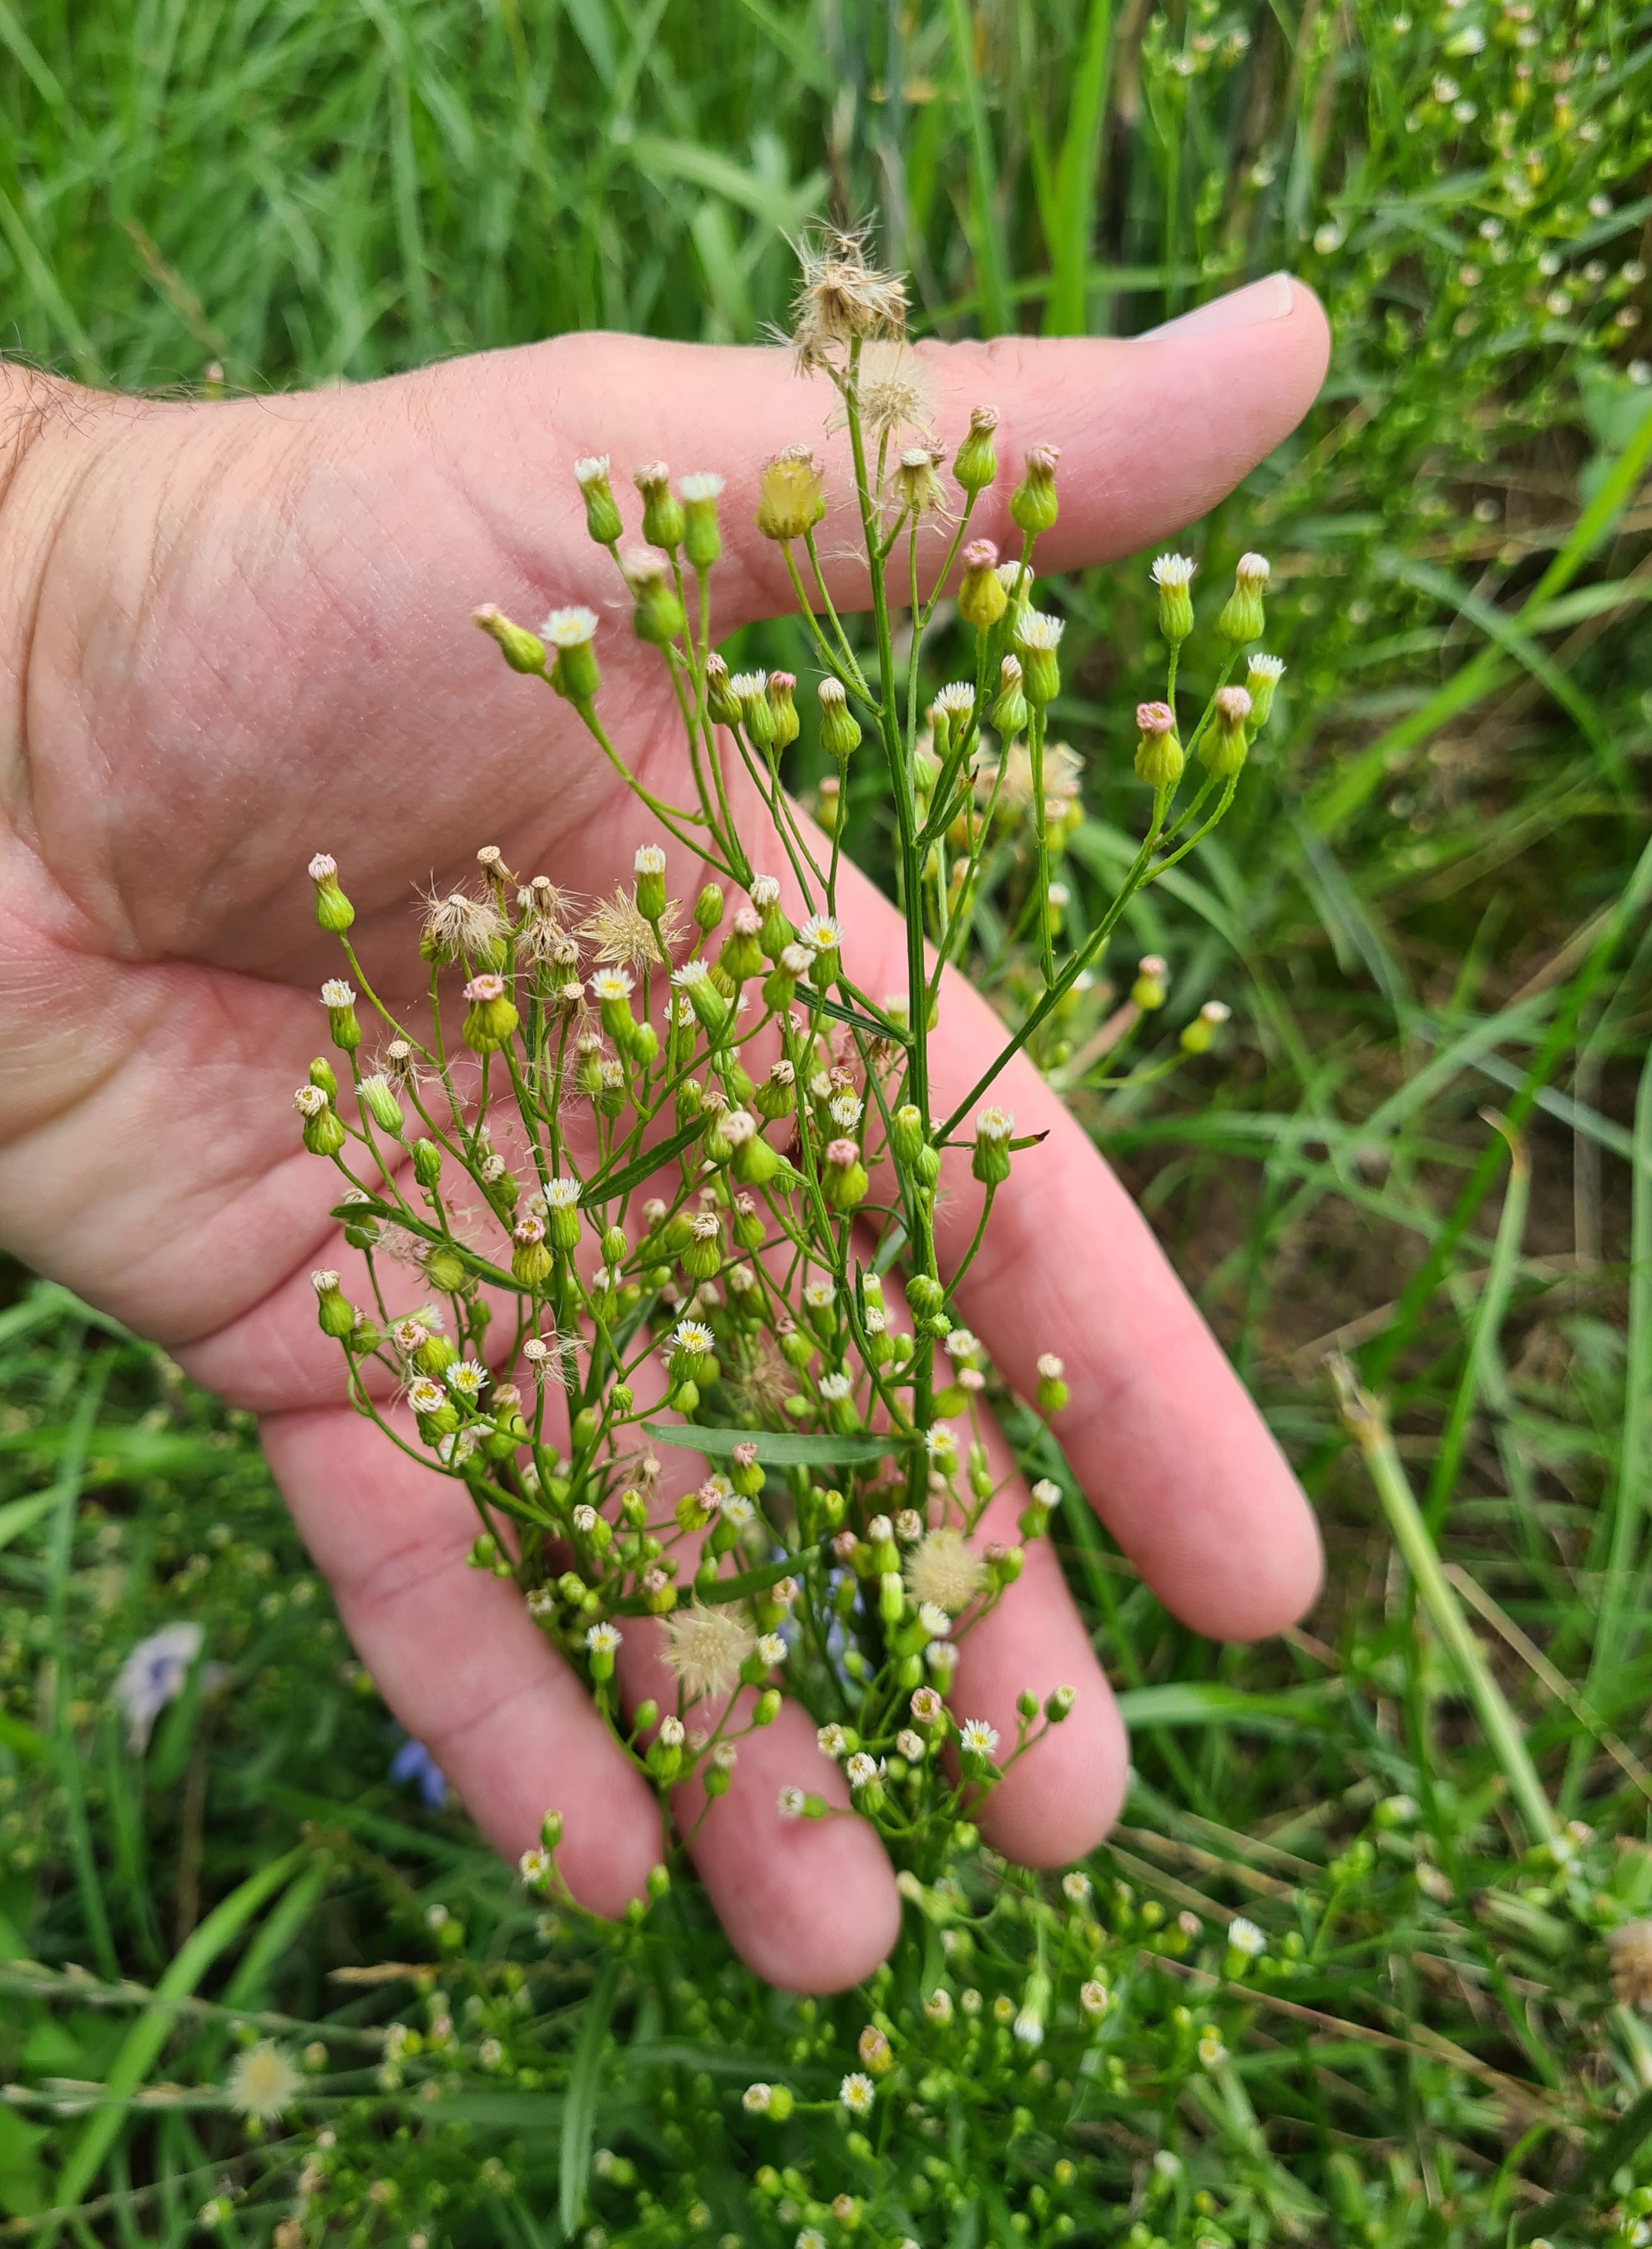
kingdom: Plantae
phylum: Tracheophyta
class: Magnoliopsida
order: Asterales
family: Asteraceae
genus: Erigeron
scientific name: Erigeron canadensis
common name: Kanadisk bakkestjerne
